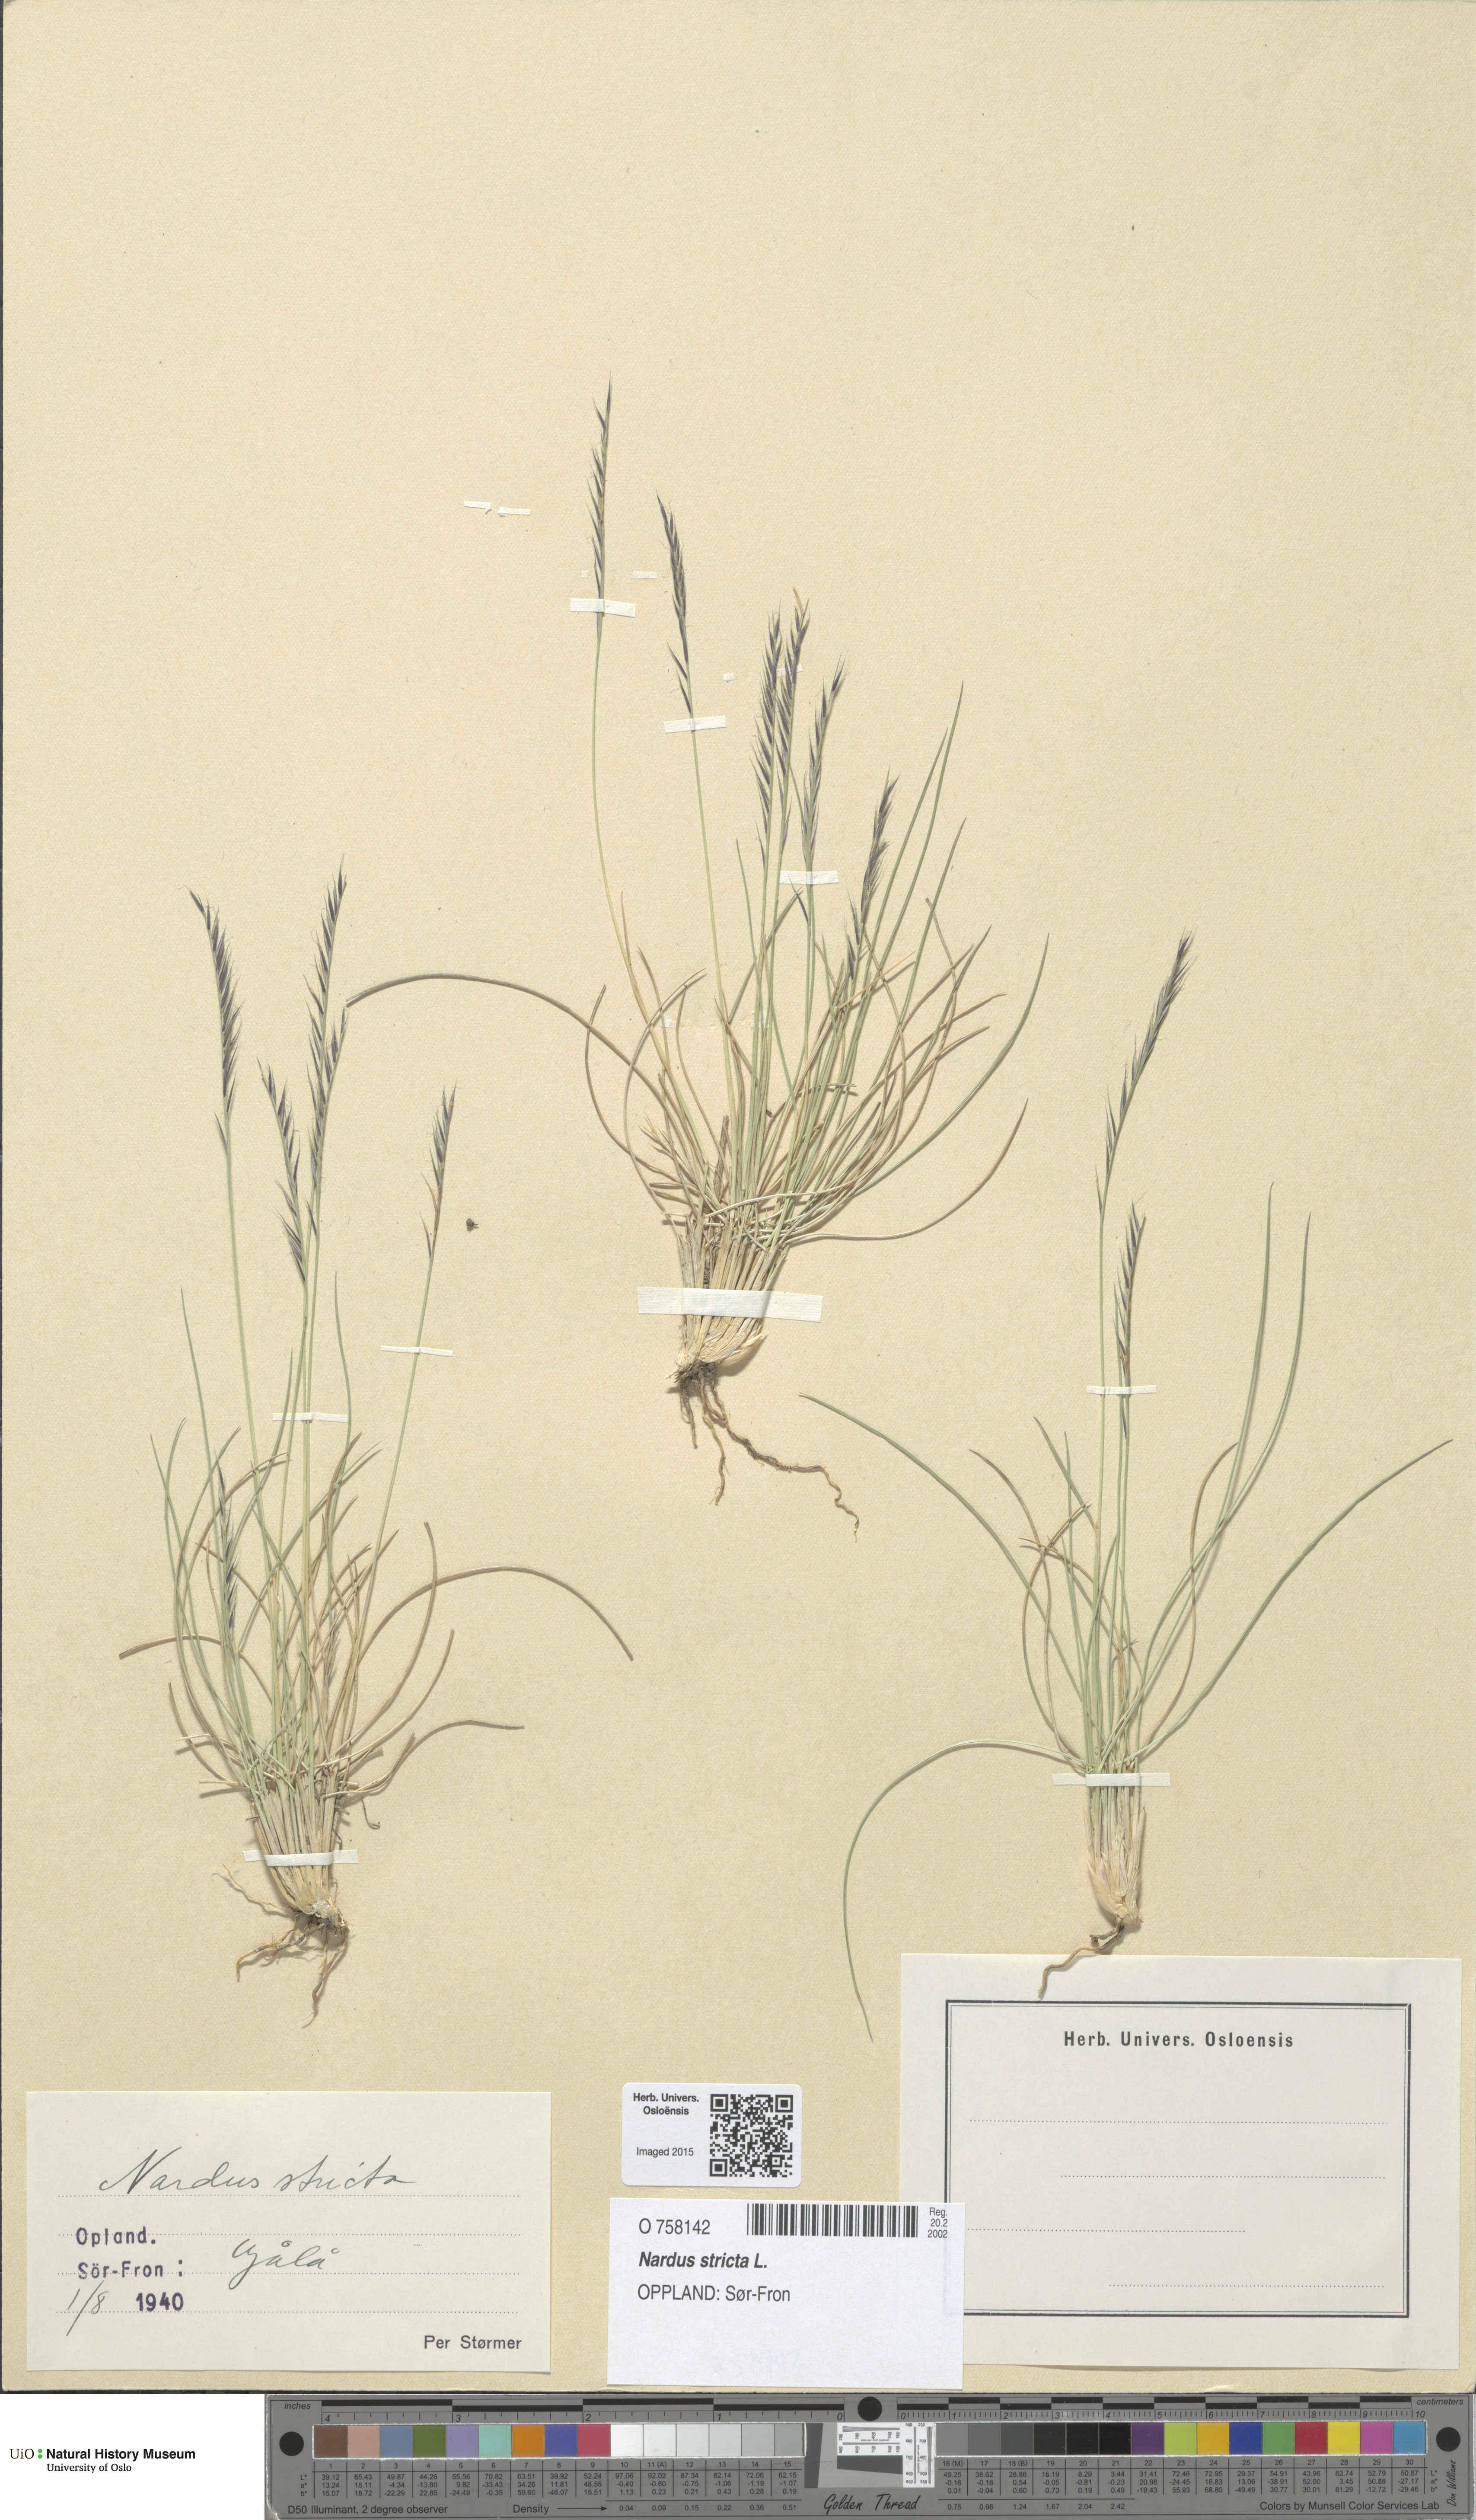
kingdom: Plantae
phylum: Tracheophyta
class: Liliopsida
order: Poales
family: Poaceae
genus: Nardus
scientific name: Nardus stricta
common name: Mat-grass
